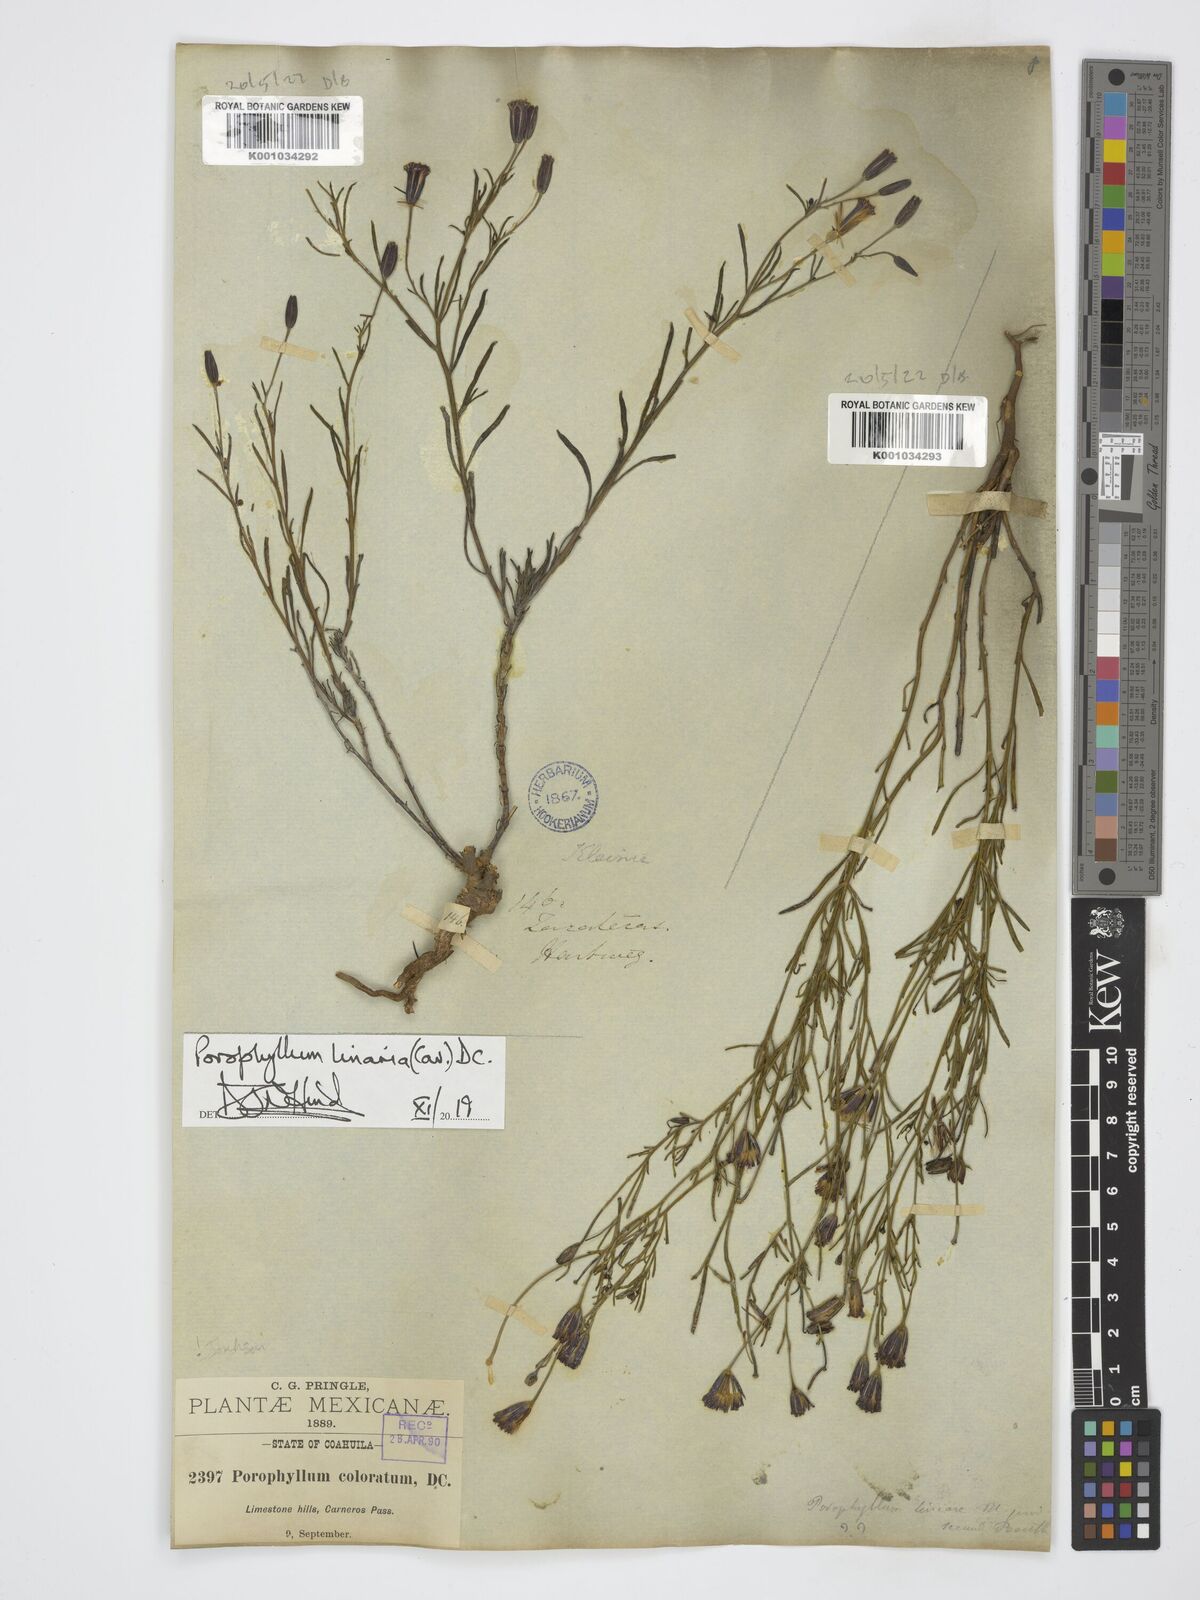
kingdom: Plantae
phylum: Tracheophyta
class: Magnoliopsida
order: Asterales
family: Asteraceae
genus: Porophyllum
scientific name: Porophyllum linaria
